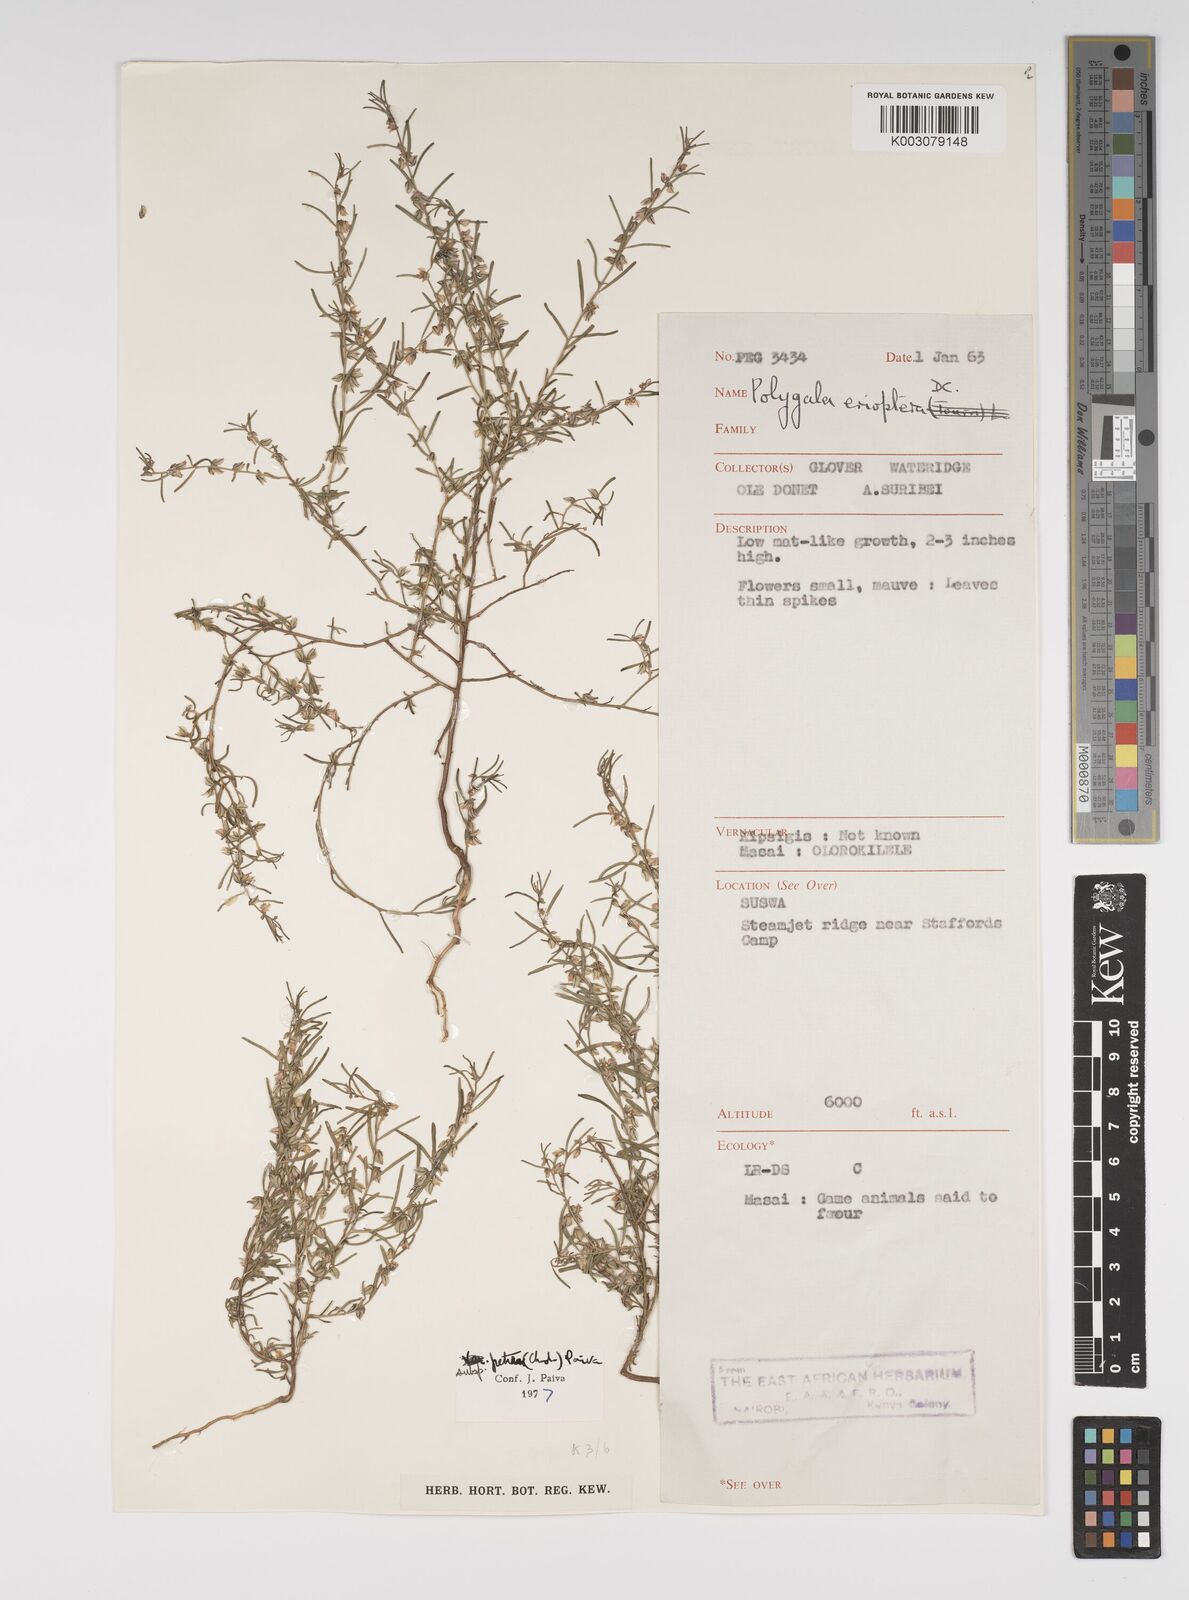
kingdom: Plantae
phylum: Tracheophyta
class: Magnoliopsida
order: Fabales
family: Polygalaceae
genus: Polygala
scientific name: Polygala erioptera
